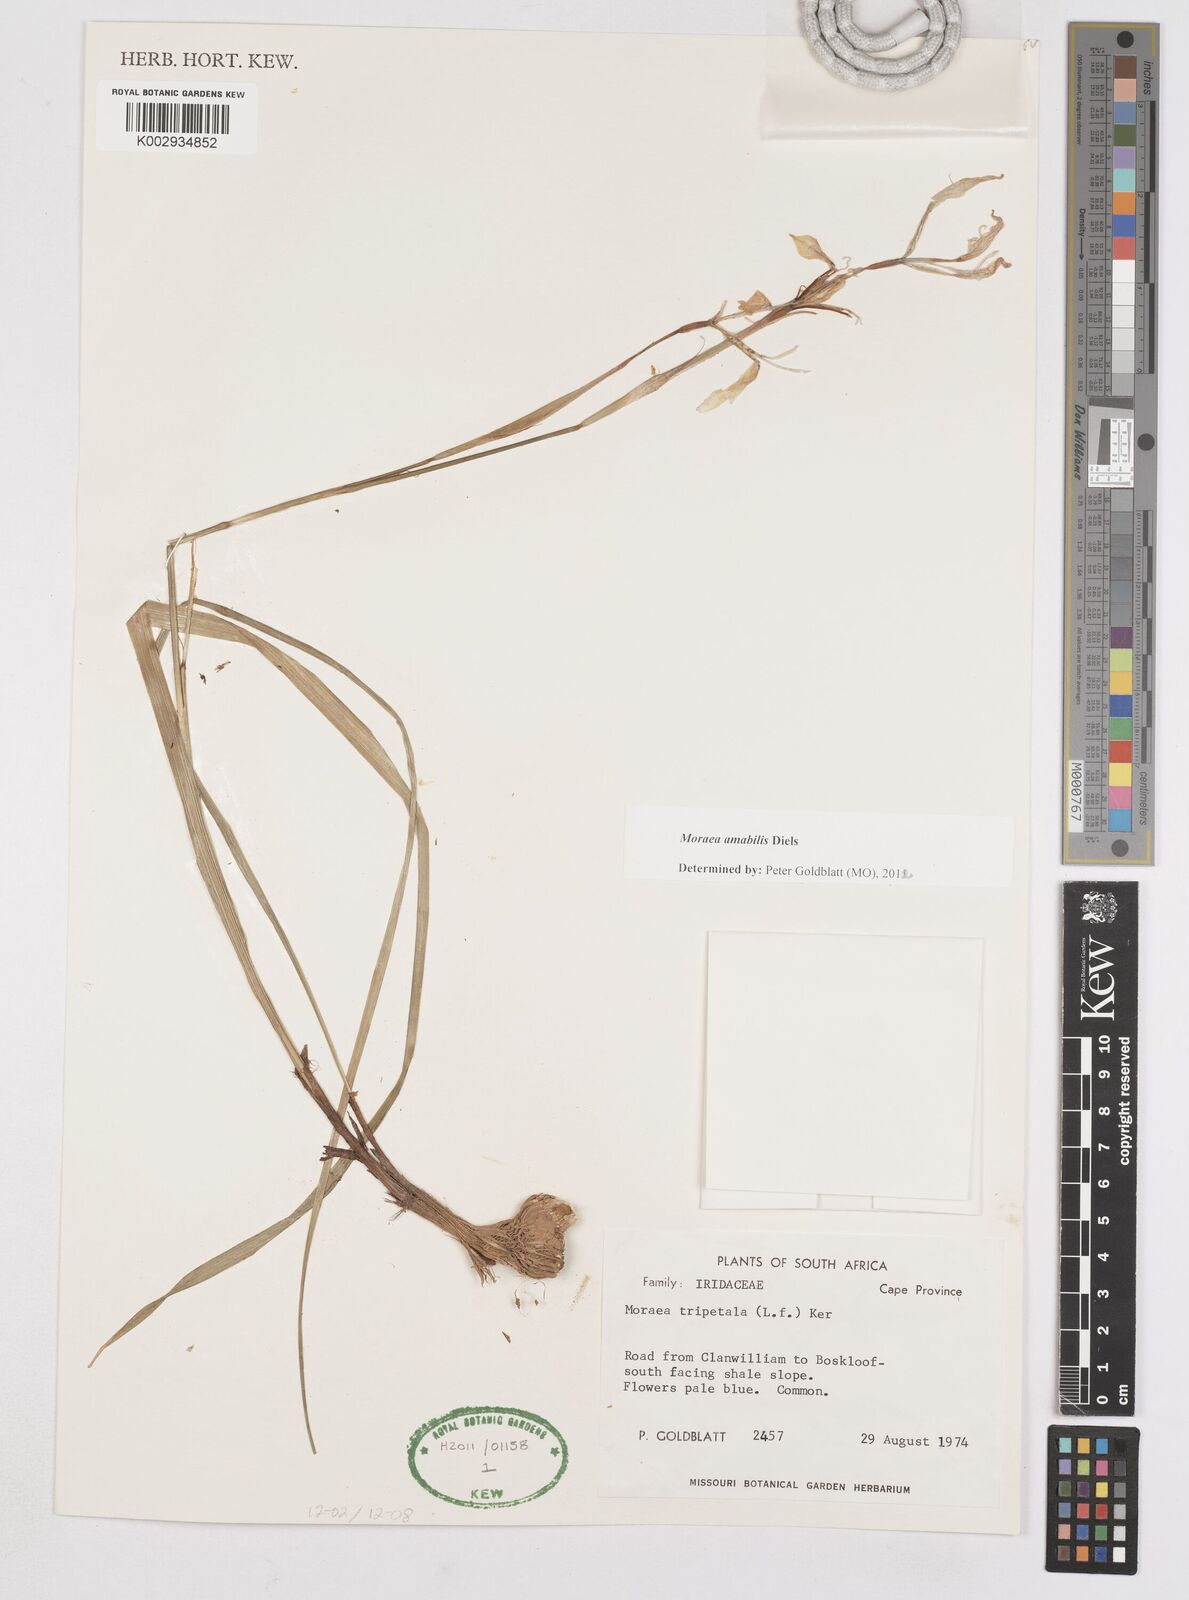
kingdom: Plantae
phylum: Tracheophyta
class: Liliopsida
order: Asparagales
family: Iridaceae
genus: Moraea
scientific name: Moraea amabilis
